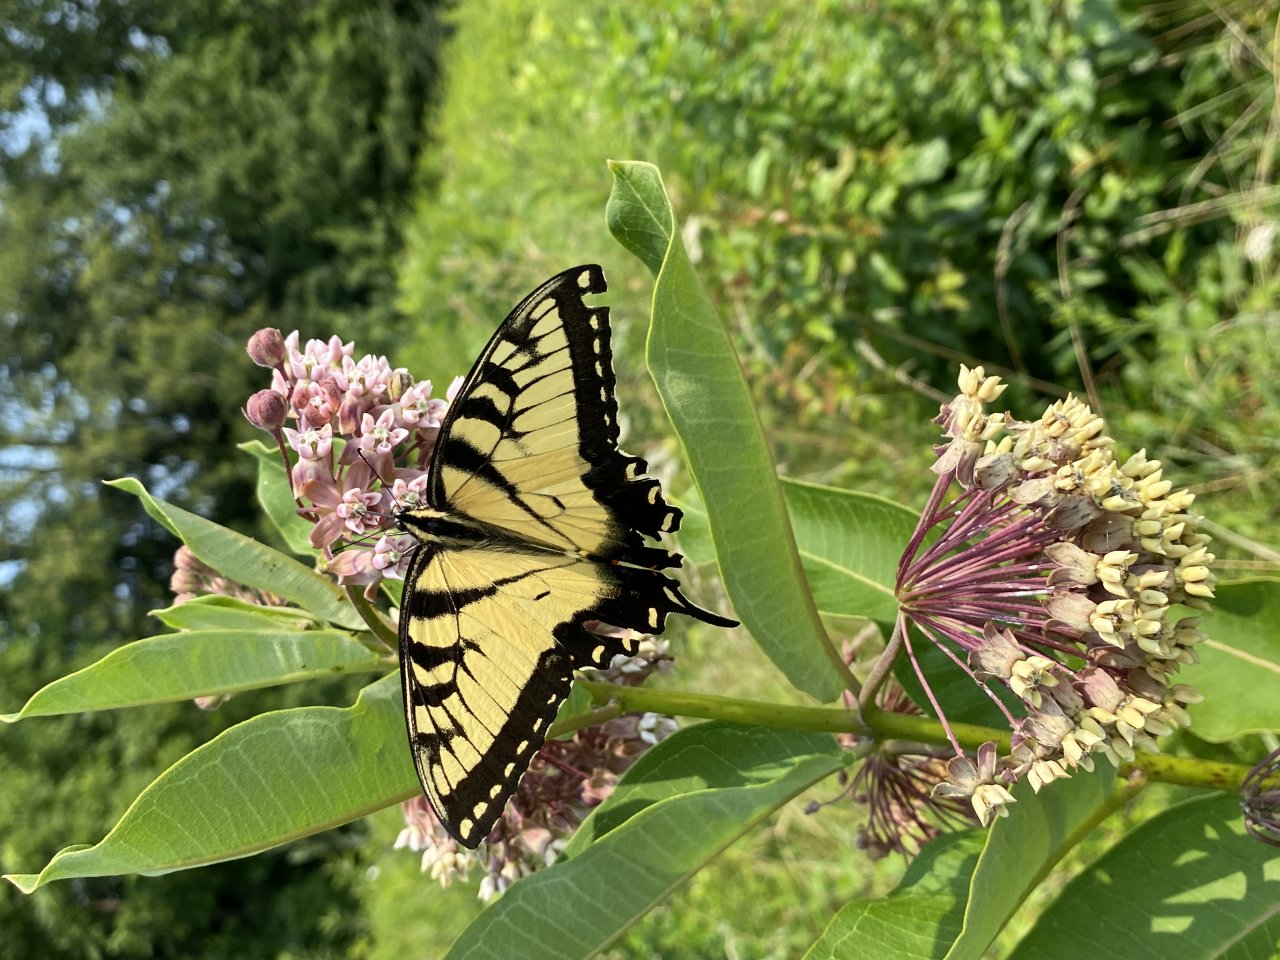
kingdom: Animalia
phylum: Arthropoda
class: Insecta
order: Lepidoptera
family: Papilionidae
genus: Pterourus
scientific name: Pterourus glaucus
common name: Eastern Tiger Swallowtail
